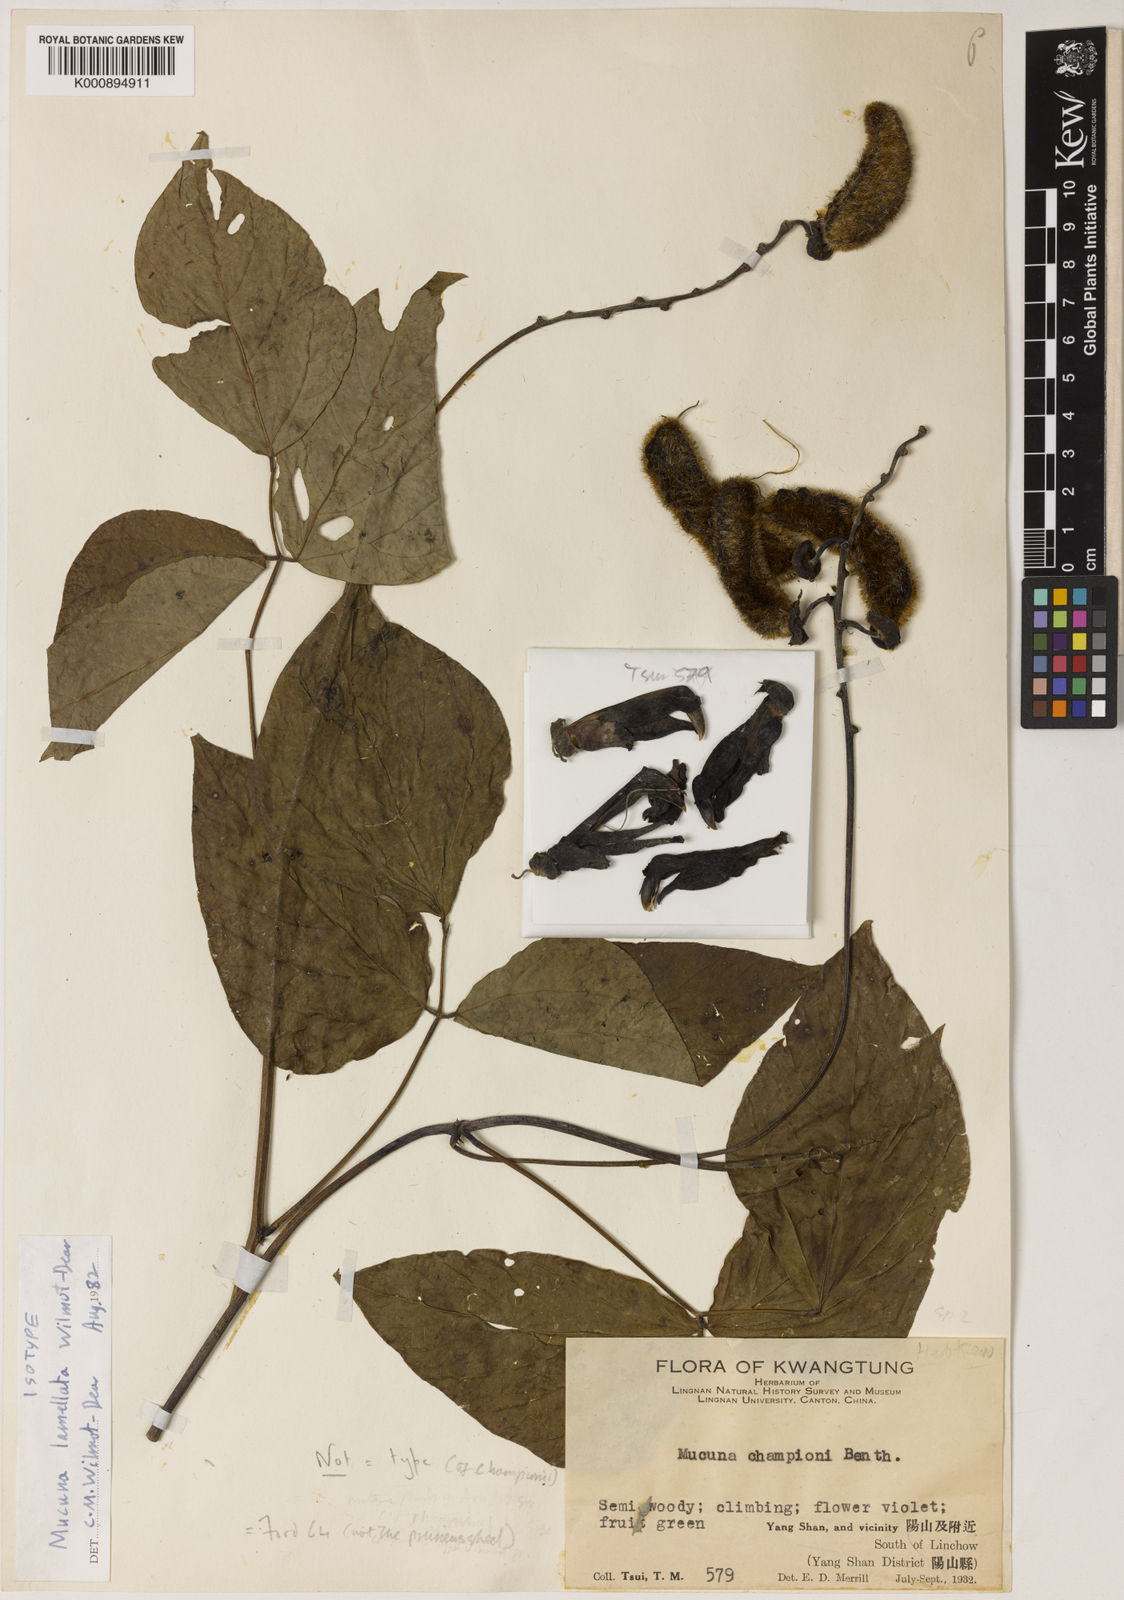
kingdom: Plantae
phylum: Tracheophyta
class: Magnoliopsida
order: Fabales
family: Fabaceae
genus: Mucuna
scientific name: Mucuna lamellata
